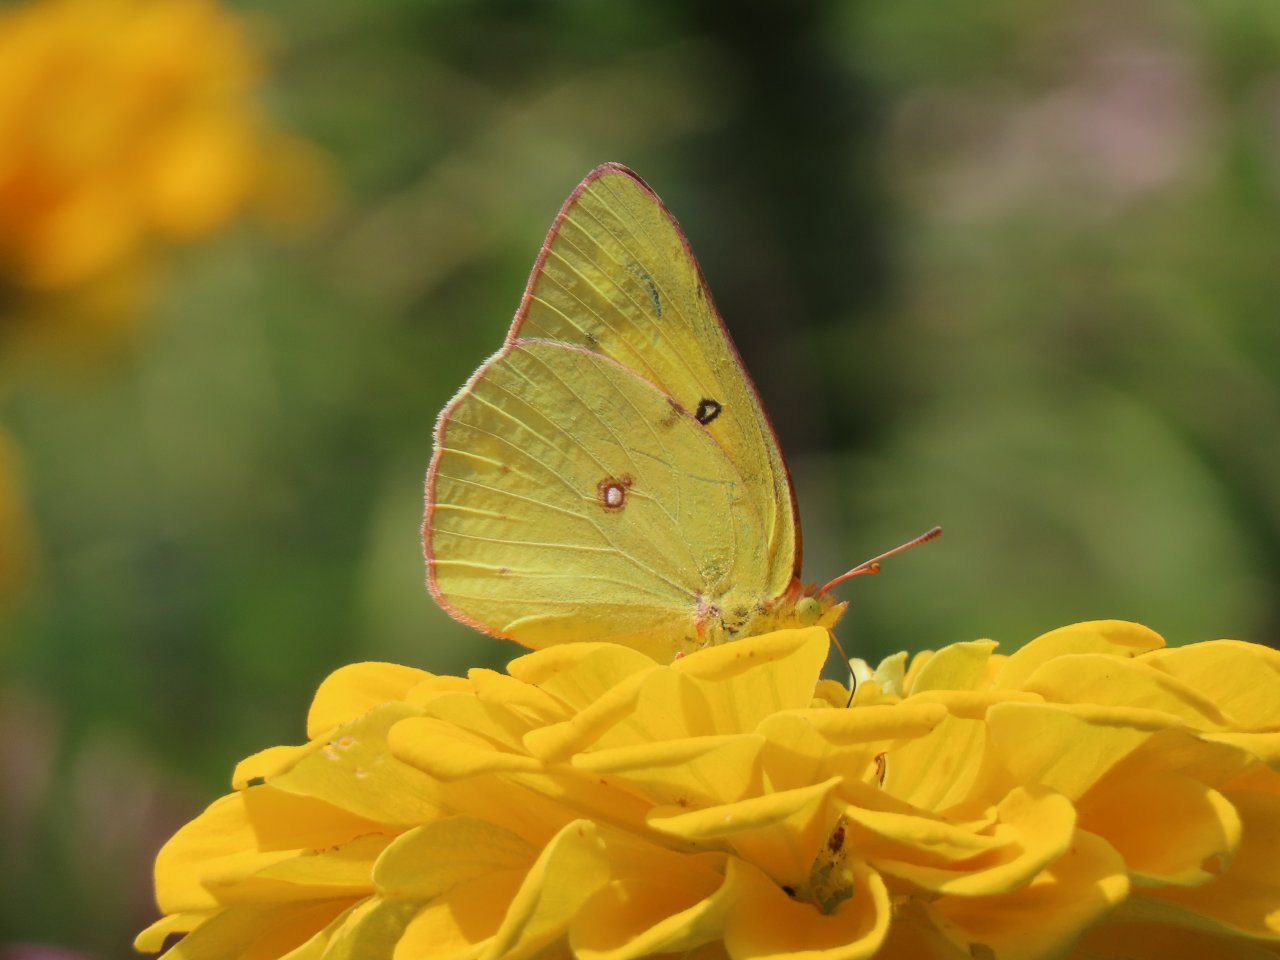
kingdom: Animalia
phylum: Arthropoda
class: Insecta
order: Lepidoptera
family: Pieridae
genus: Colias
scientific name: Colias eurytheme
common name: Orange Sulphur
